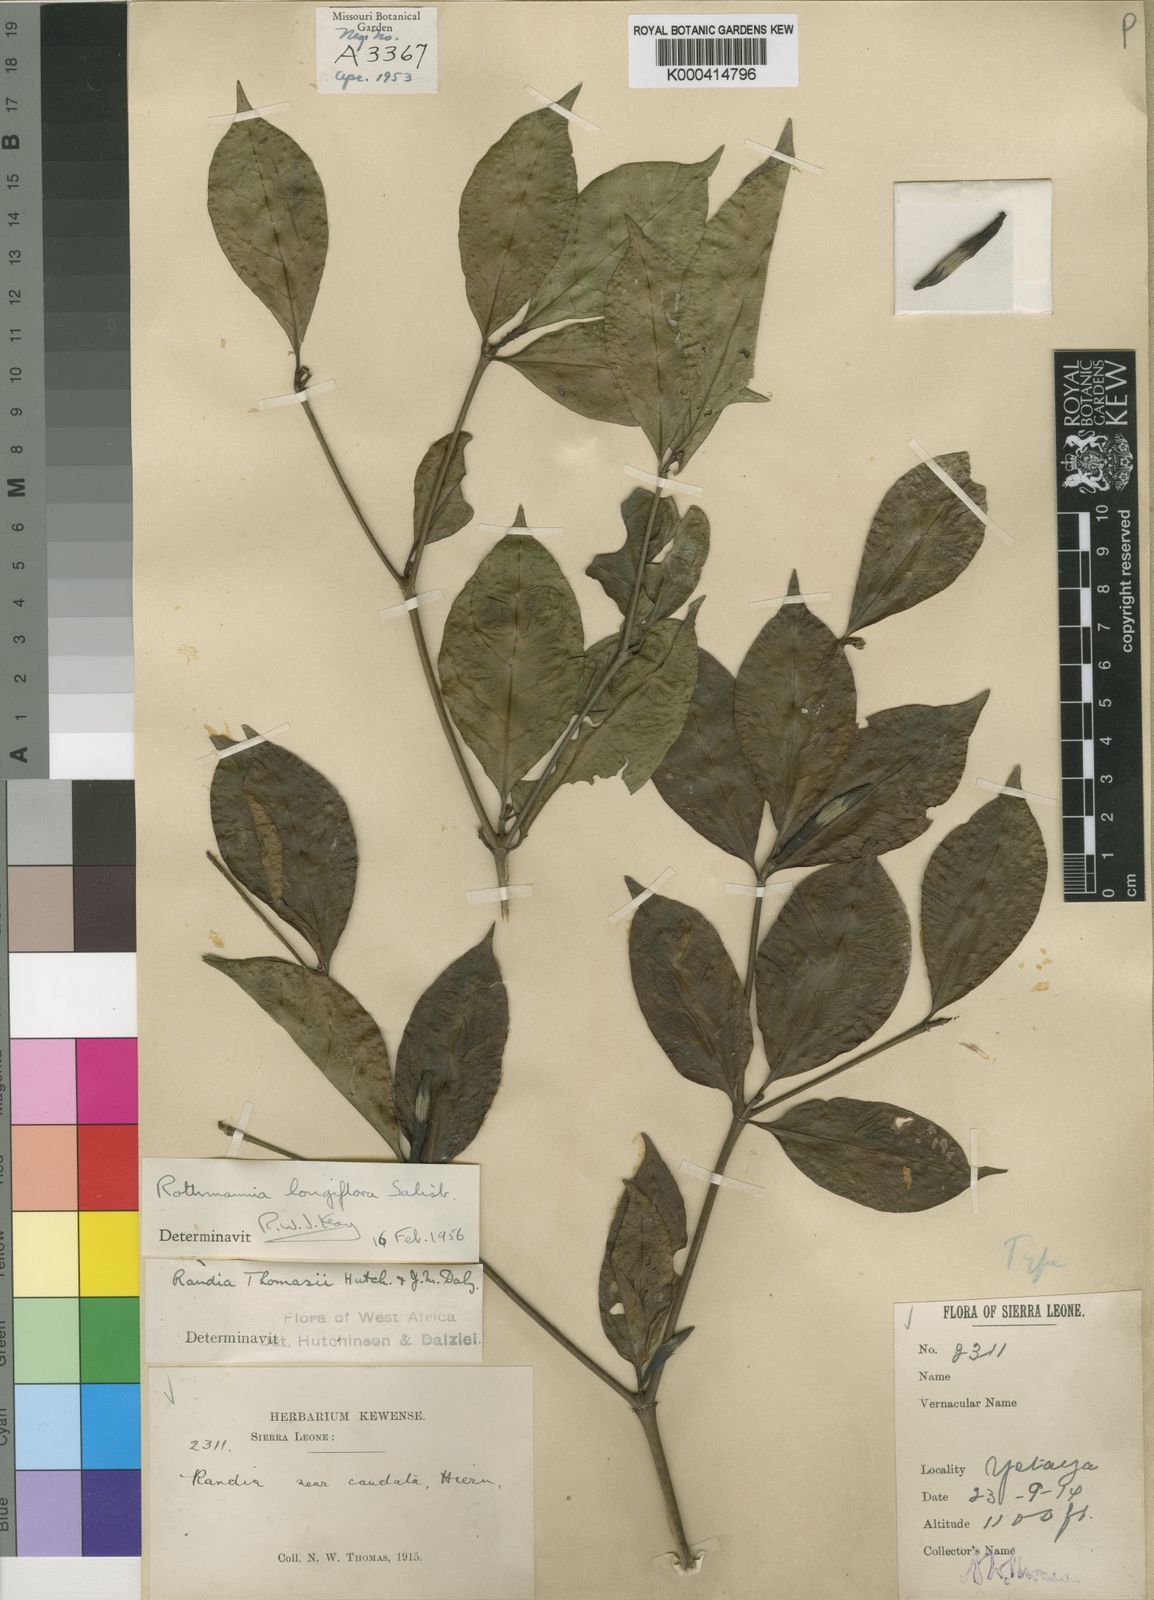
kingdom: Plantae
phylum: Tracheophyta
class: Magnoliopsida
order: Gentianales
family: Rubiaceae
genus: Rothmannia
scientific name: Rothmannia longiflora
